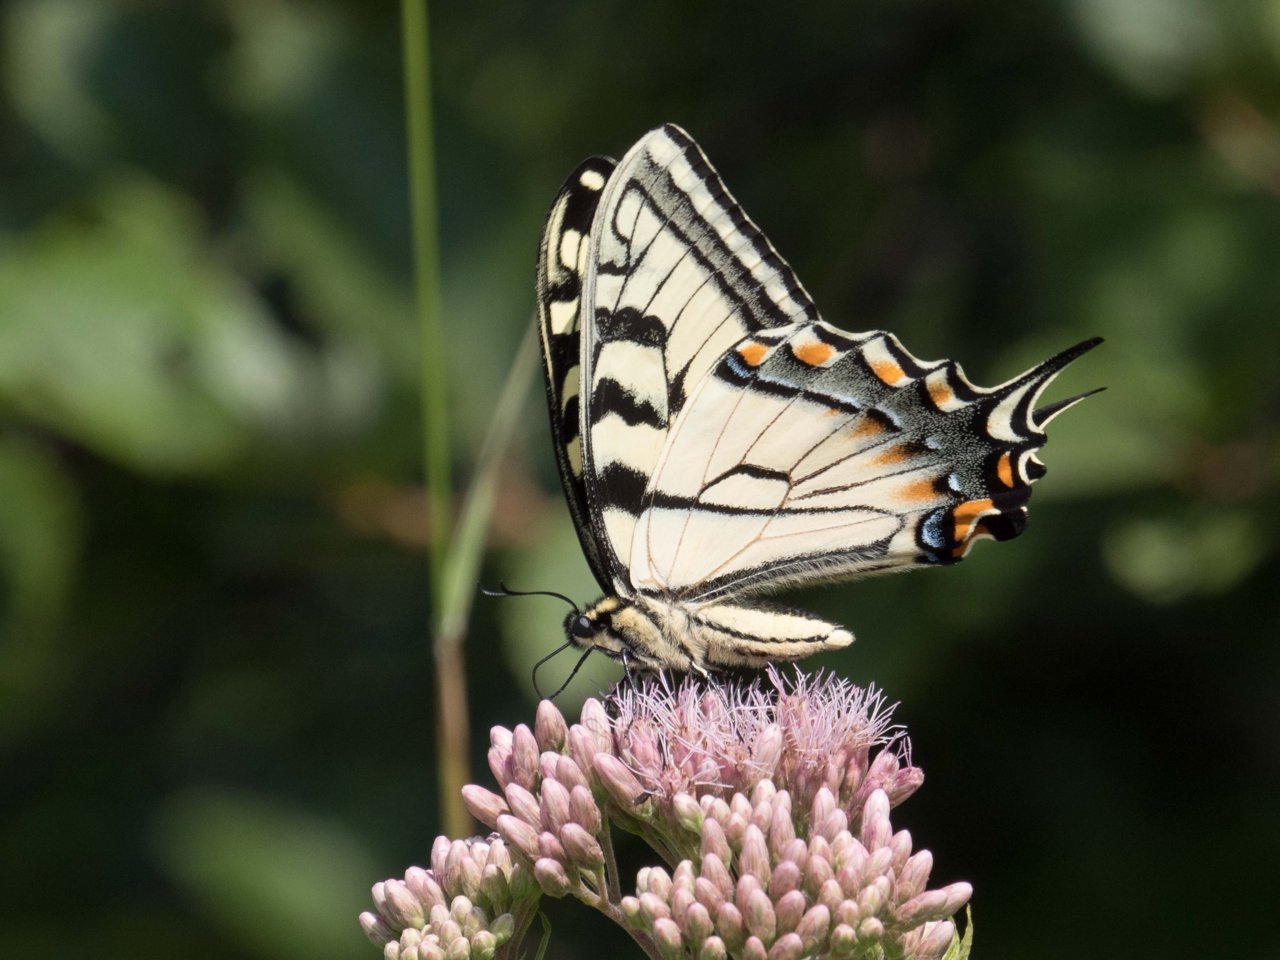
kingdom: Animalia
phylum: Arthropoda
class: Insecta
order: Lepidoptera
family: Papilionidae
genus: Pterourus
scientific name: Pterourus glaucus
